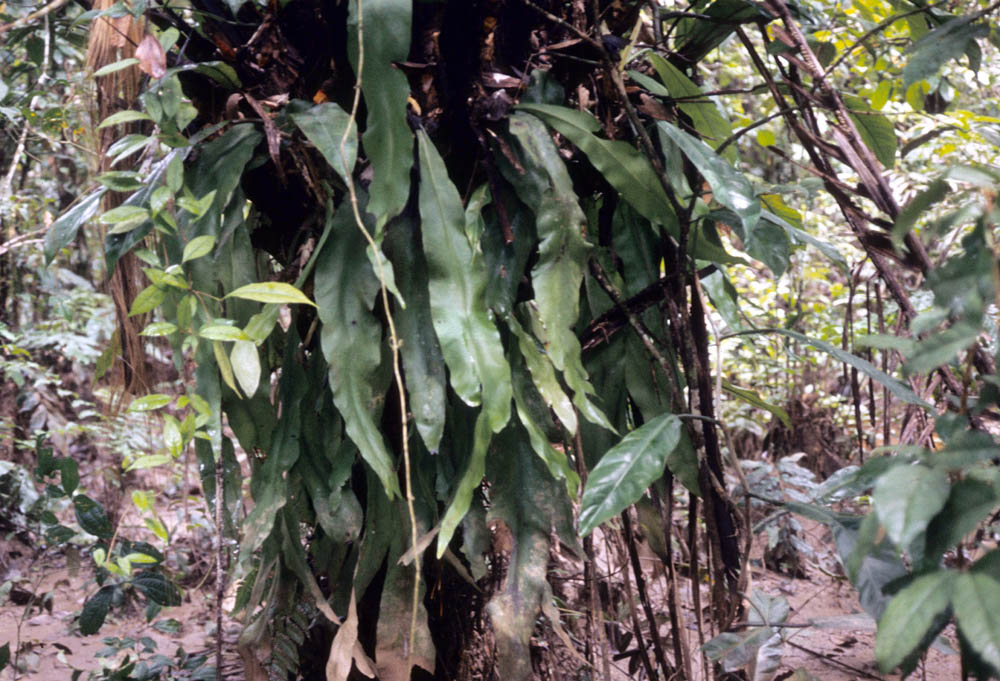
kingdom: Plantae
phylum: Tracheophyta
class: Polypodiopsida
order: Polypodiales
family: Pteridaceae
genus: Polytaenium
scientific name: Polytaenium citrifolium
